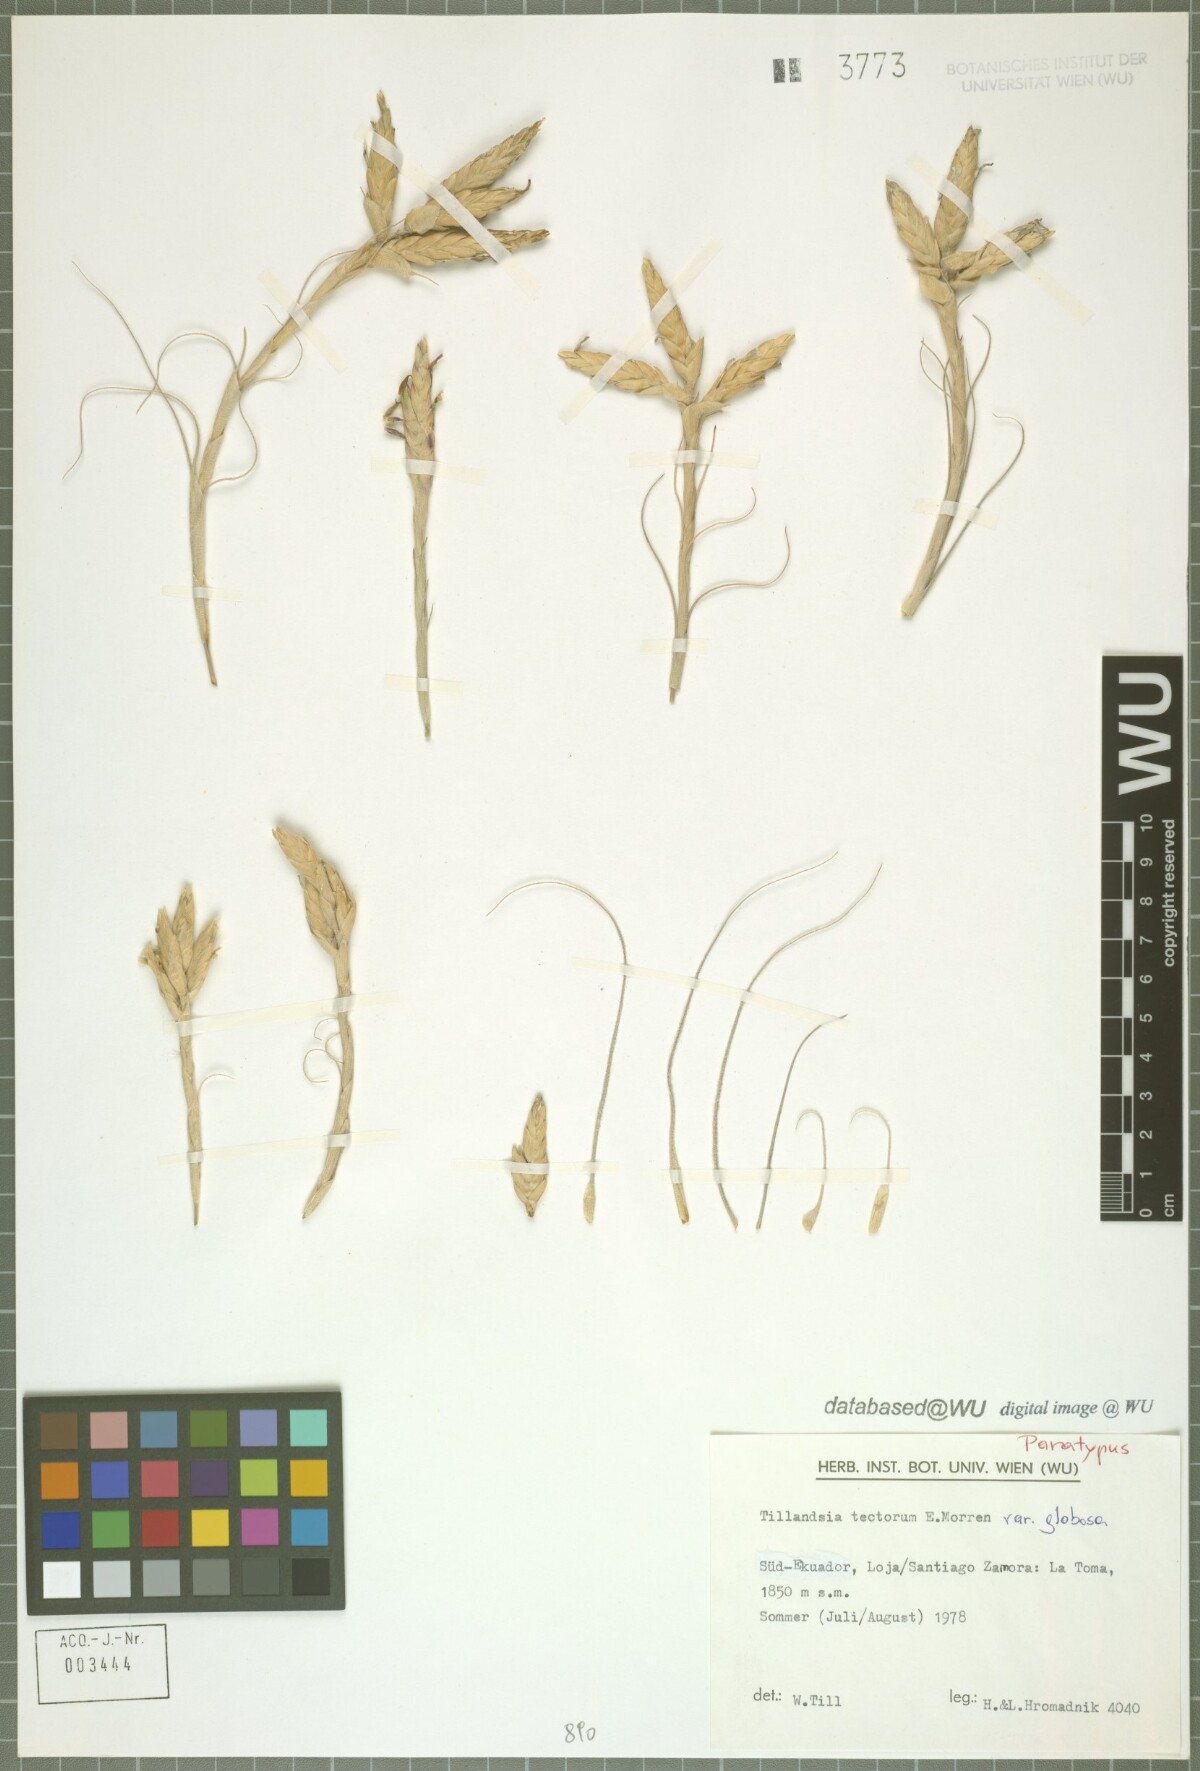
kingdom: Plantae
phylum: Tracheophyta
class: Liliopsida
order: Poales
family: Bromeliaceae
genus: Tillandsia
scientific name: Tillandsia tectorum
